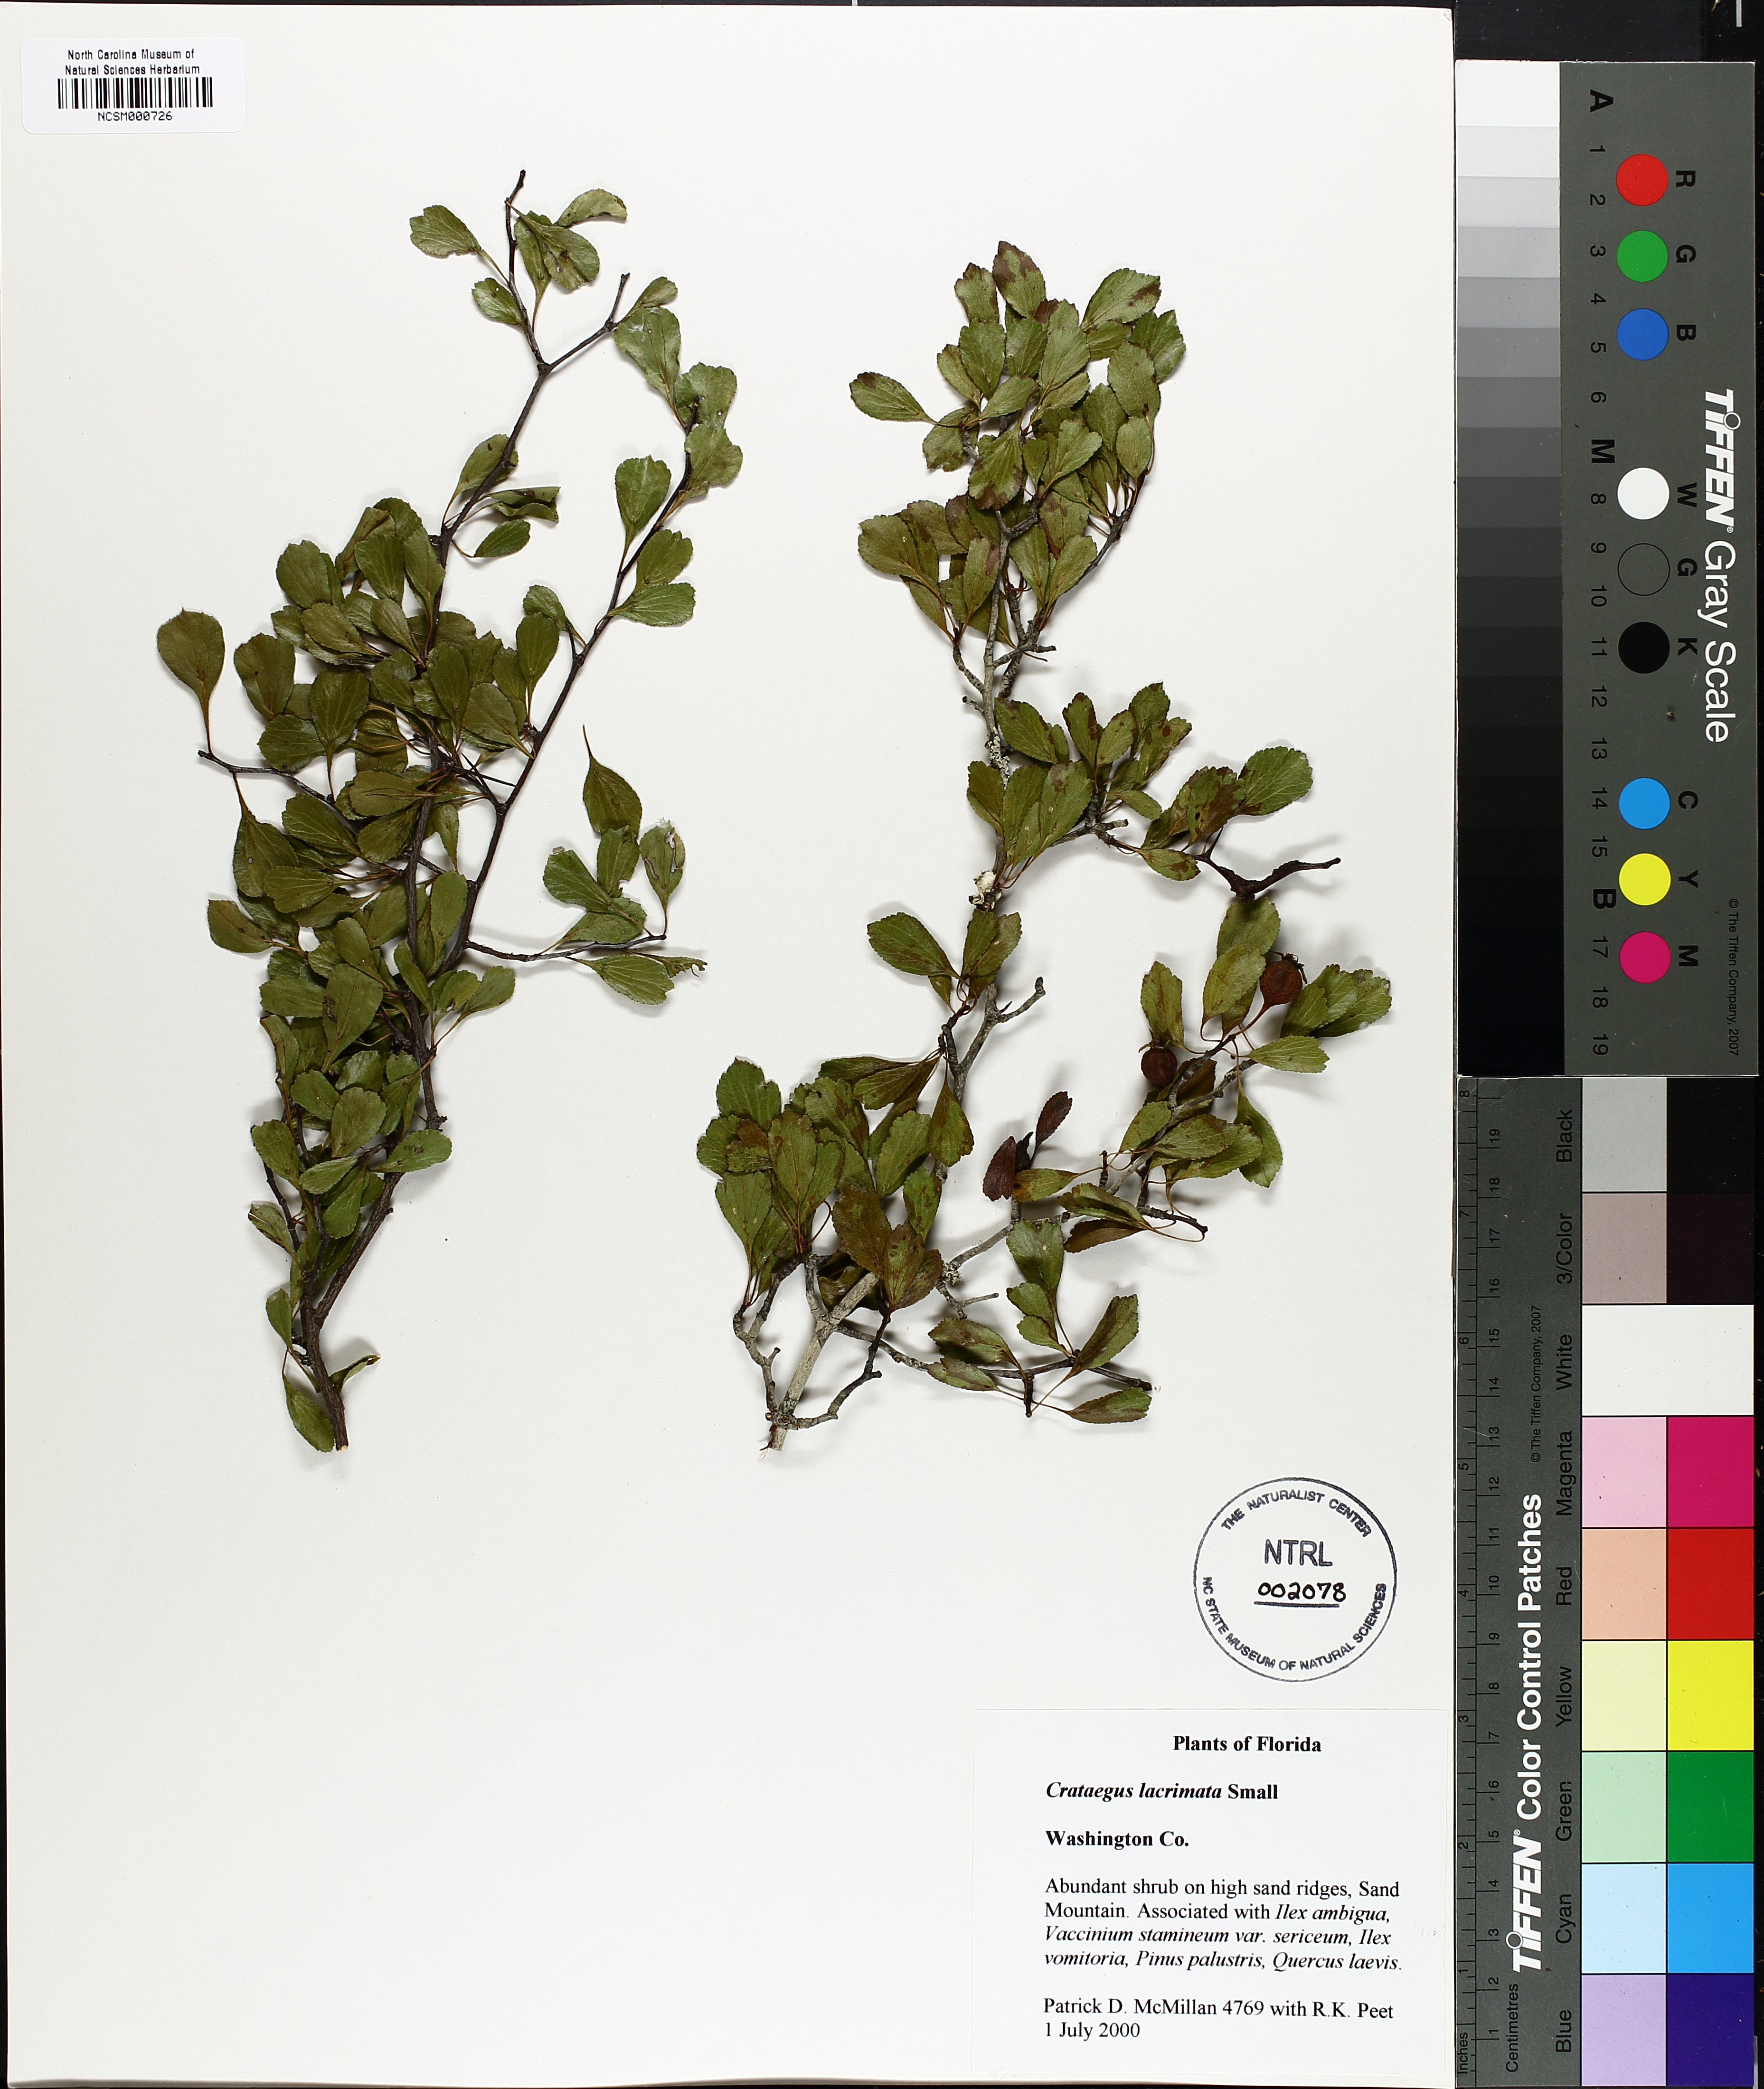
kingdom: Plantae
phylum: Tracheophyta
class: Magnoliopsida
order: Rosales
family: Rosaceae
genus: Crataegus
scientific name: Crataegus lacrimata
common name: Weeping hawthorn
